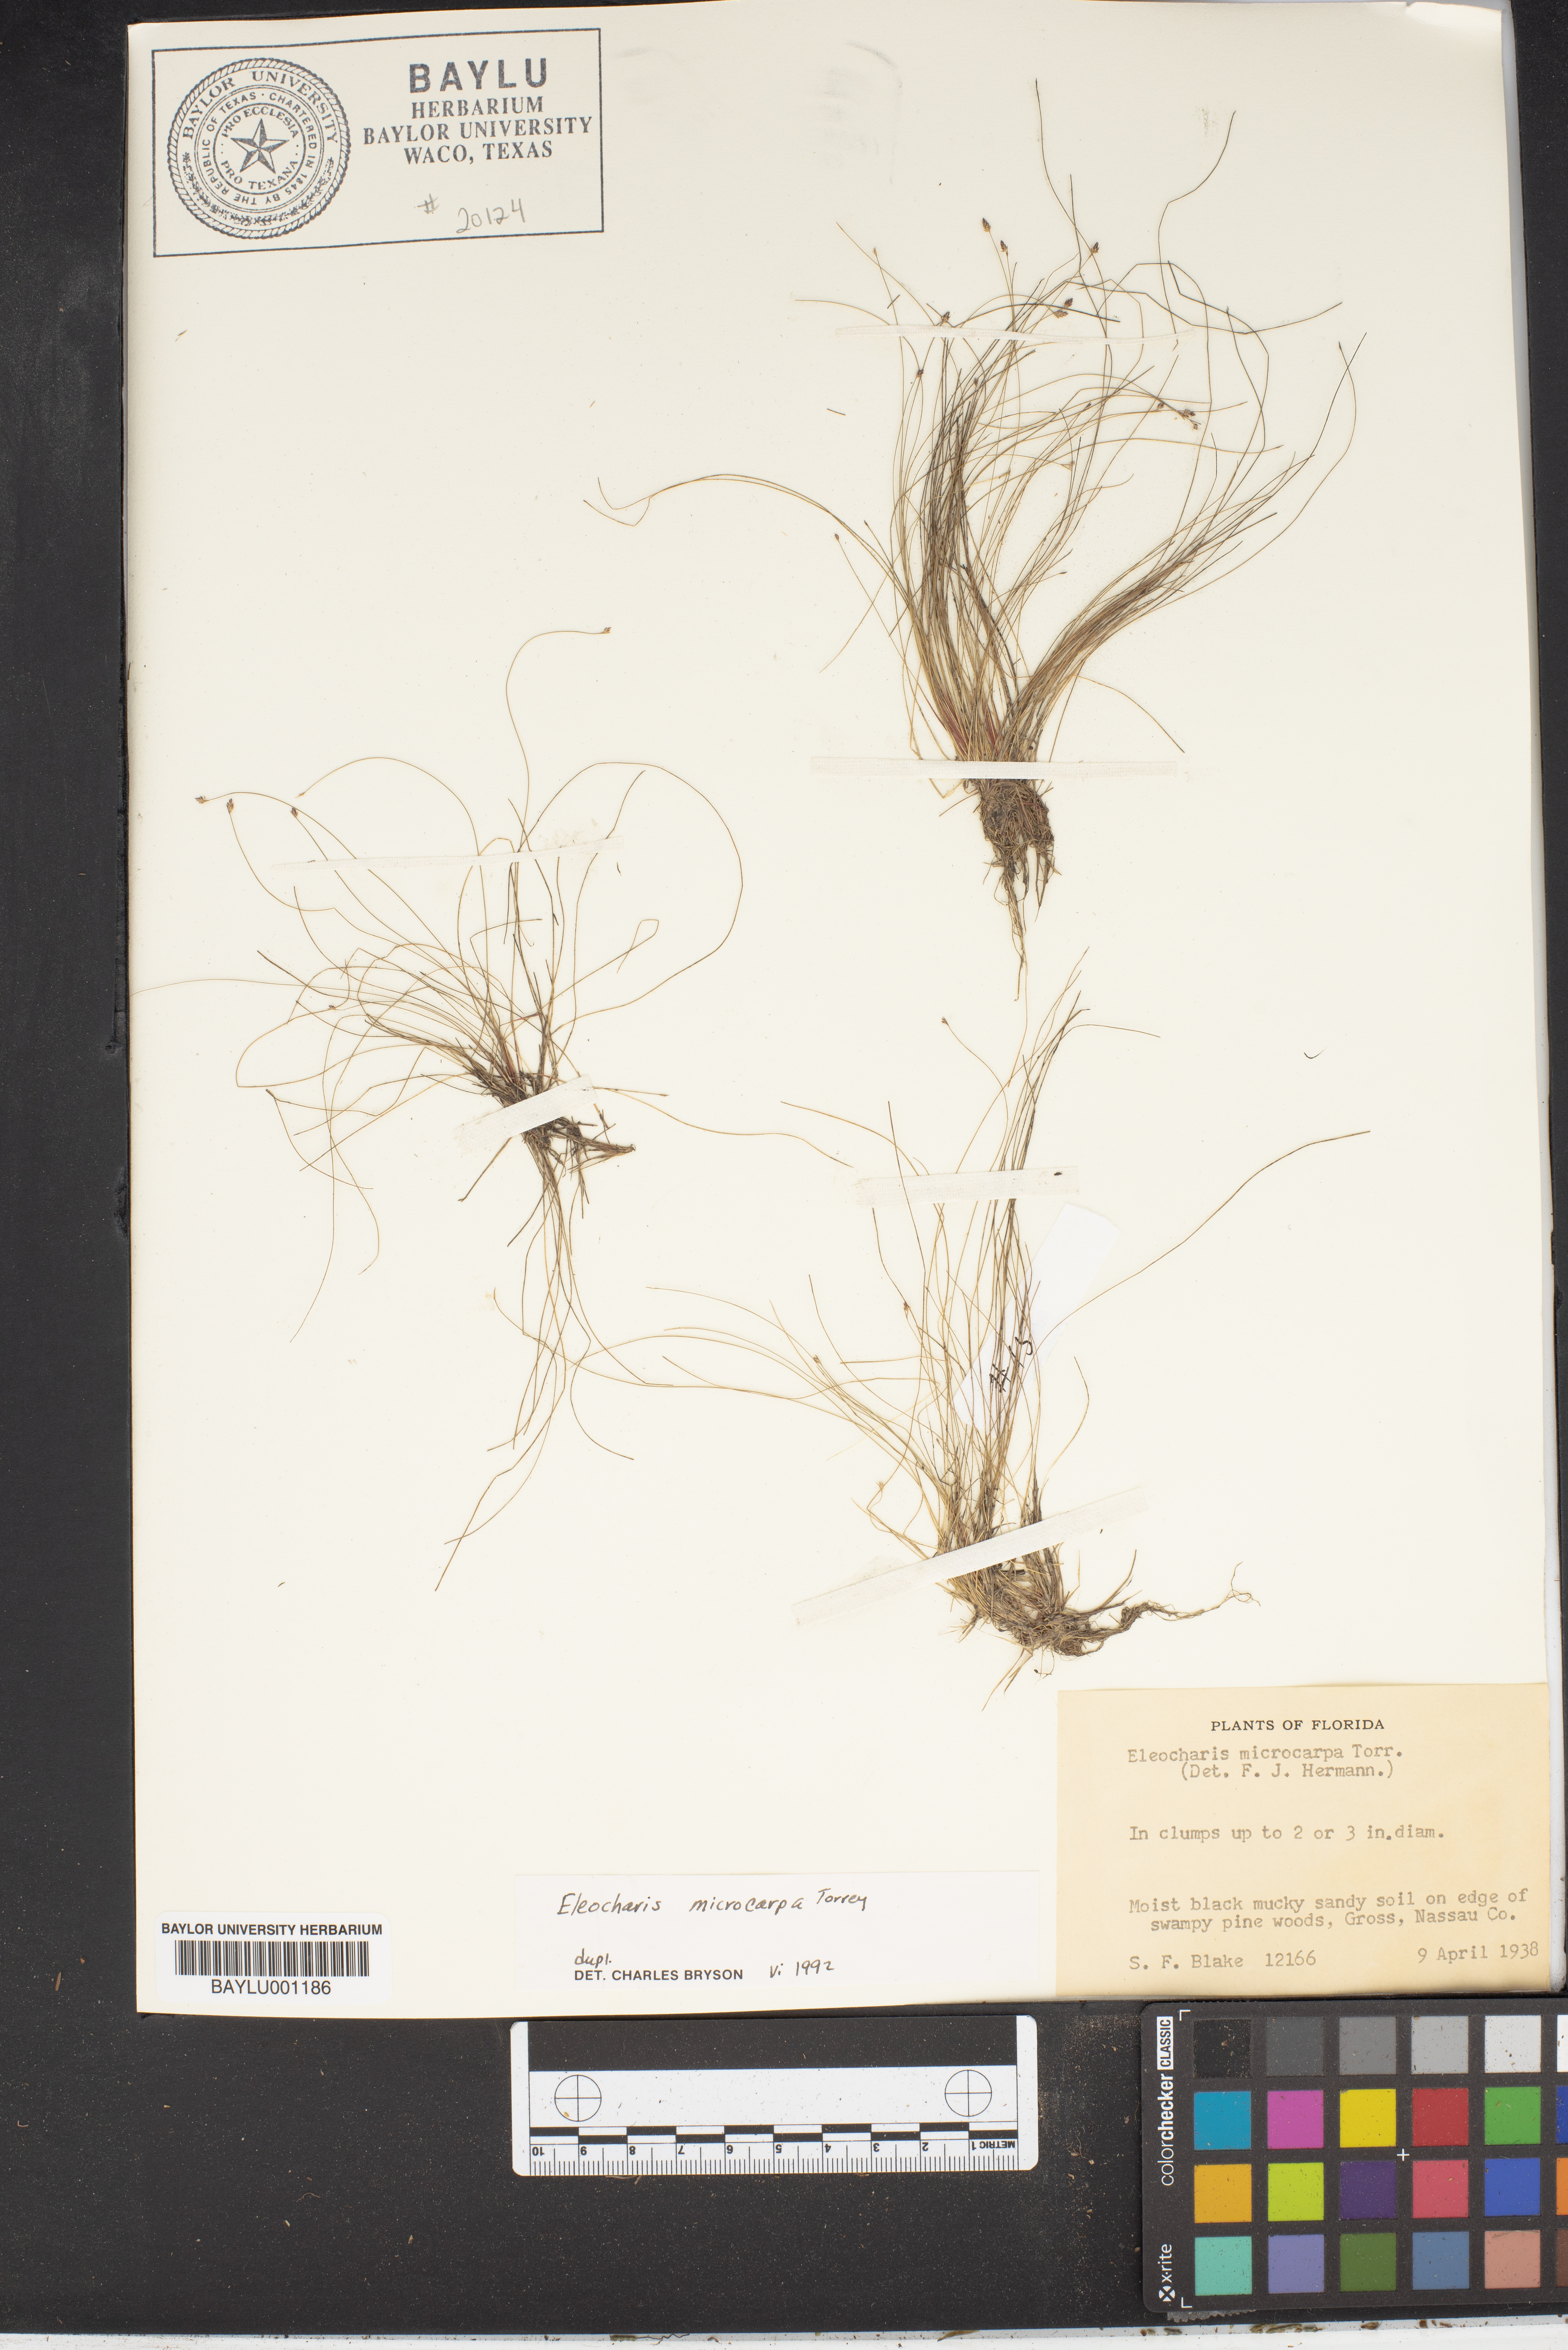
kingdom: Plantae
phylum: Tracheophyta
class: Liliopsida
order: Poales
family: Cyperaceae
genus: Eleocharis
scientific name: Eleocharis microcarpa
